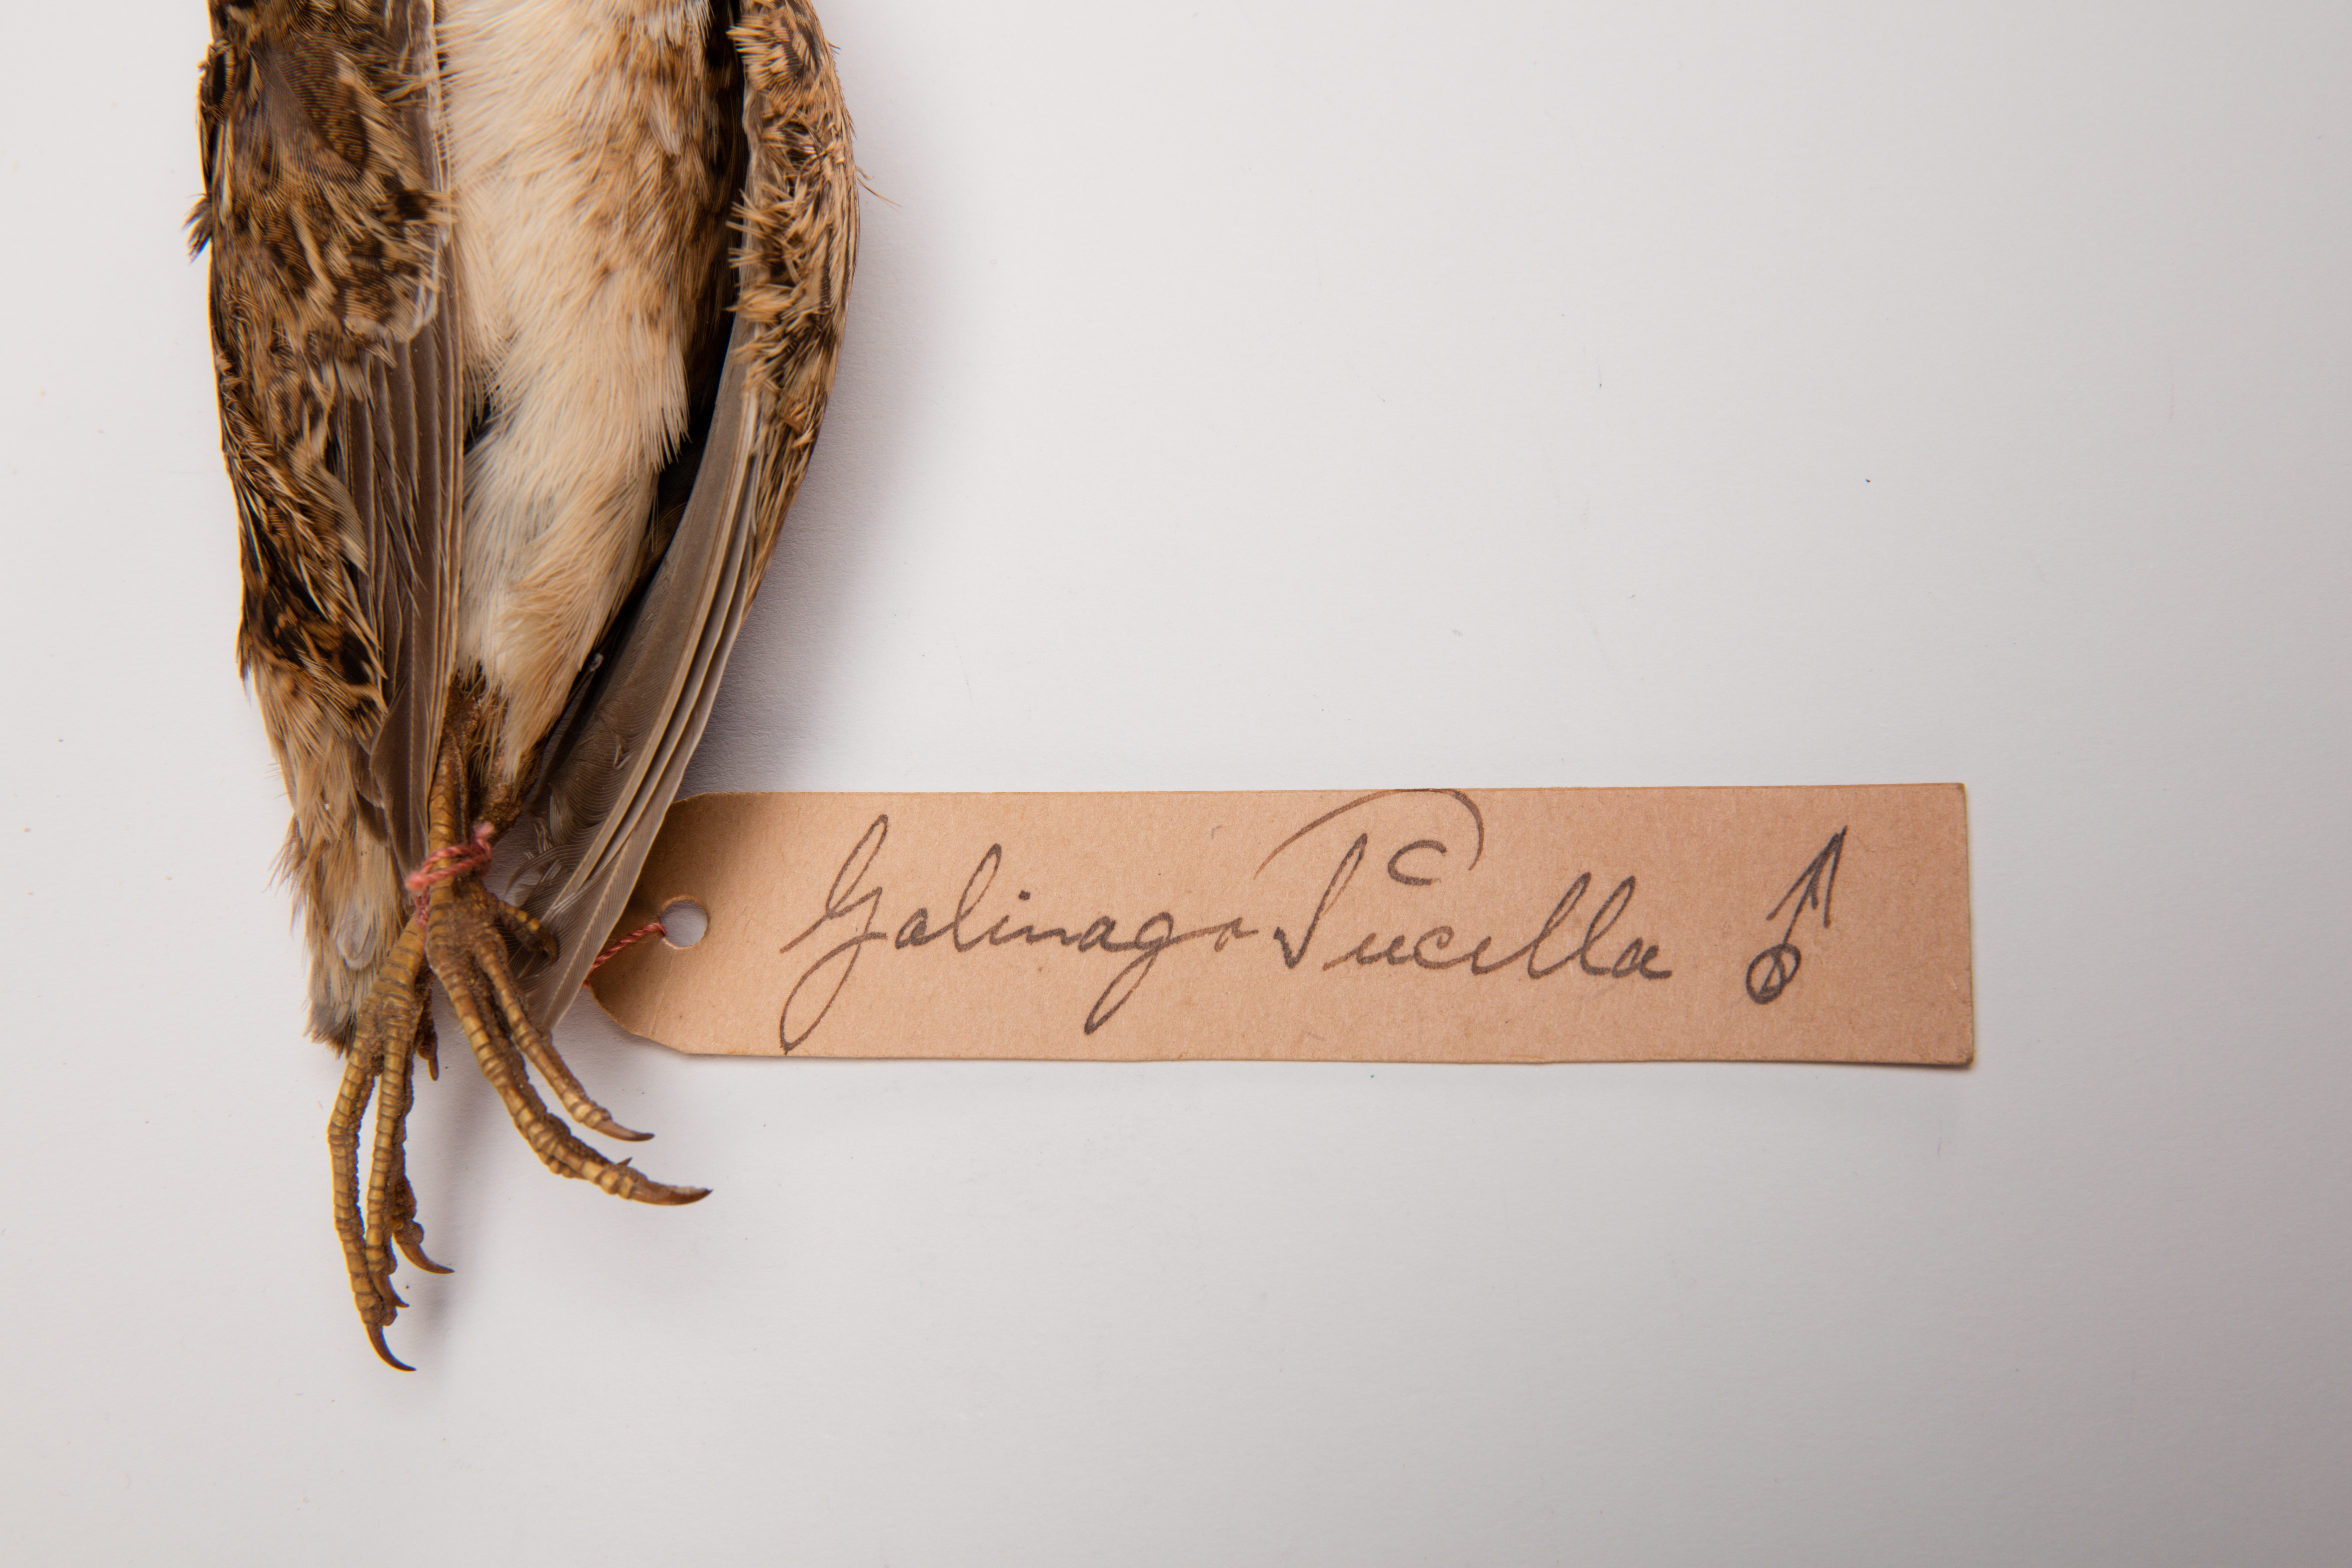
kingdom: Animalia
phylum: Chordata
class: Aves
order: Charadriiformes
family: Scolopacidae
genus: Coenocorypha
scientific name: Coenocorypha pusilla
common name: Chatham snipe
